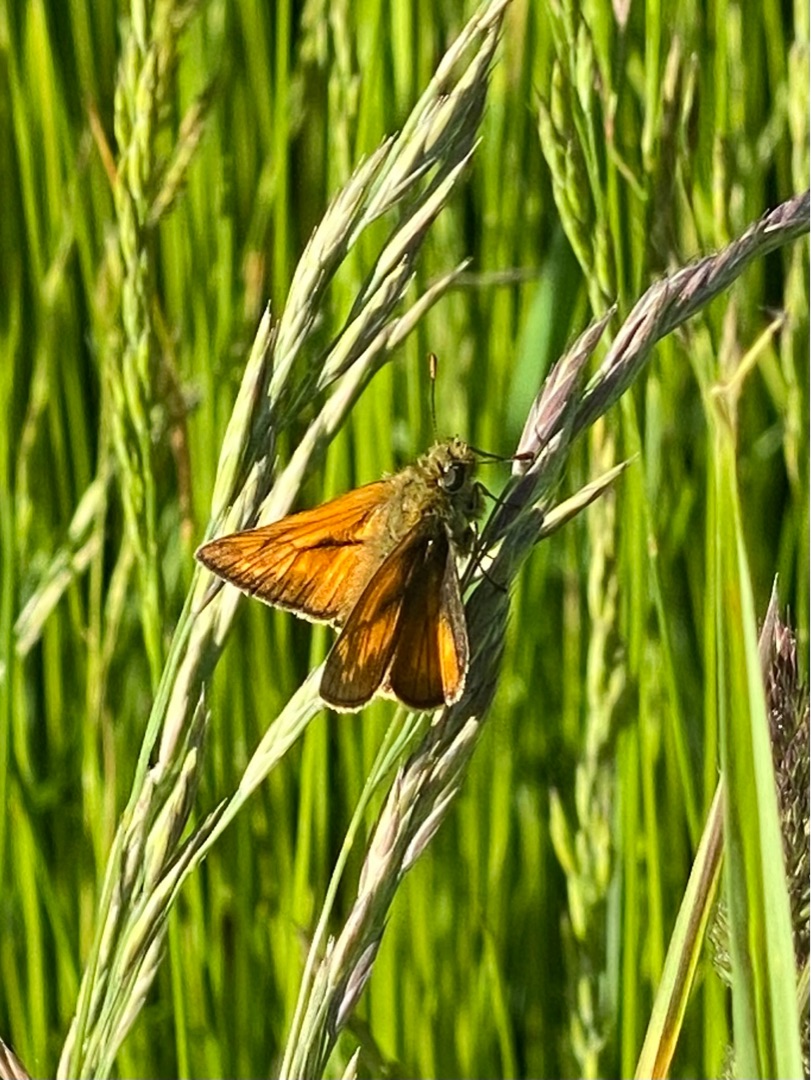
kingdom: Animalia
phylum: Arthropoda
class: Insecta
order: Lepidoptera
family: Hesperiidae
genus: Ochlodes
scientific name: Ochlodes venata
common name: Stor bredpande
